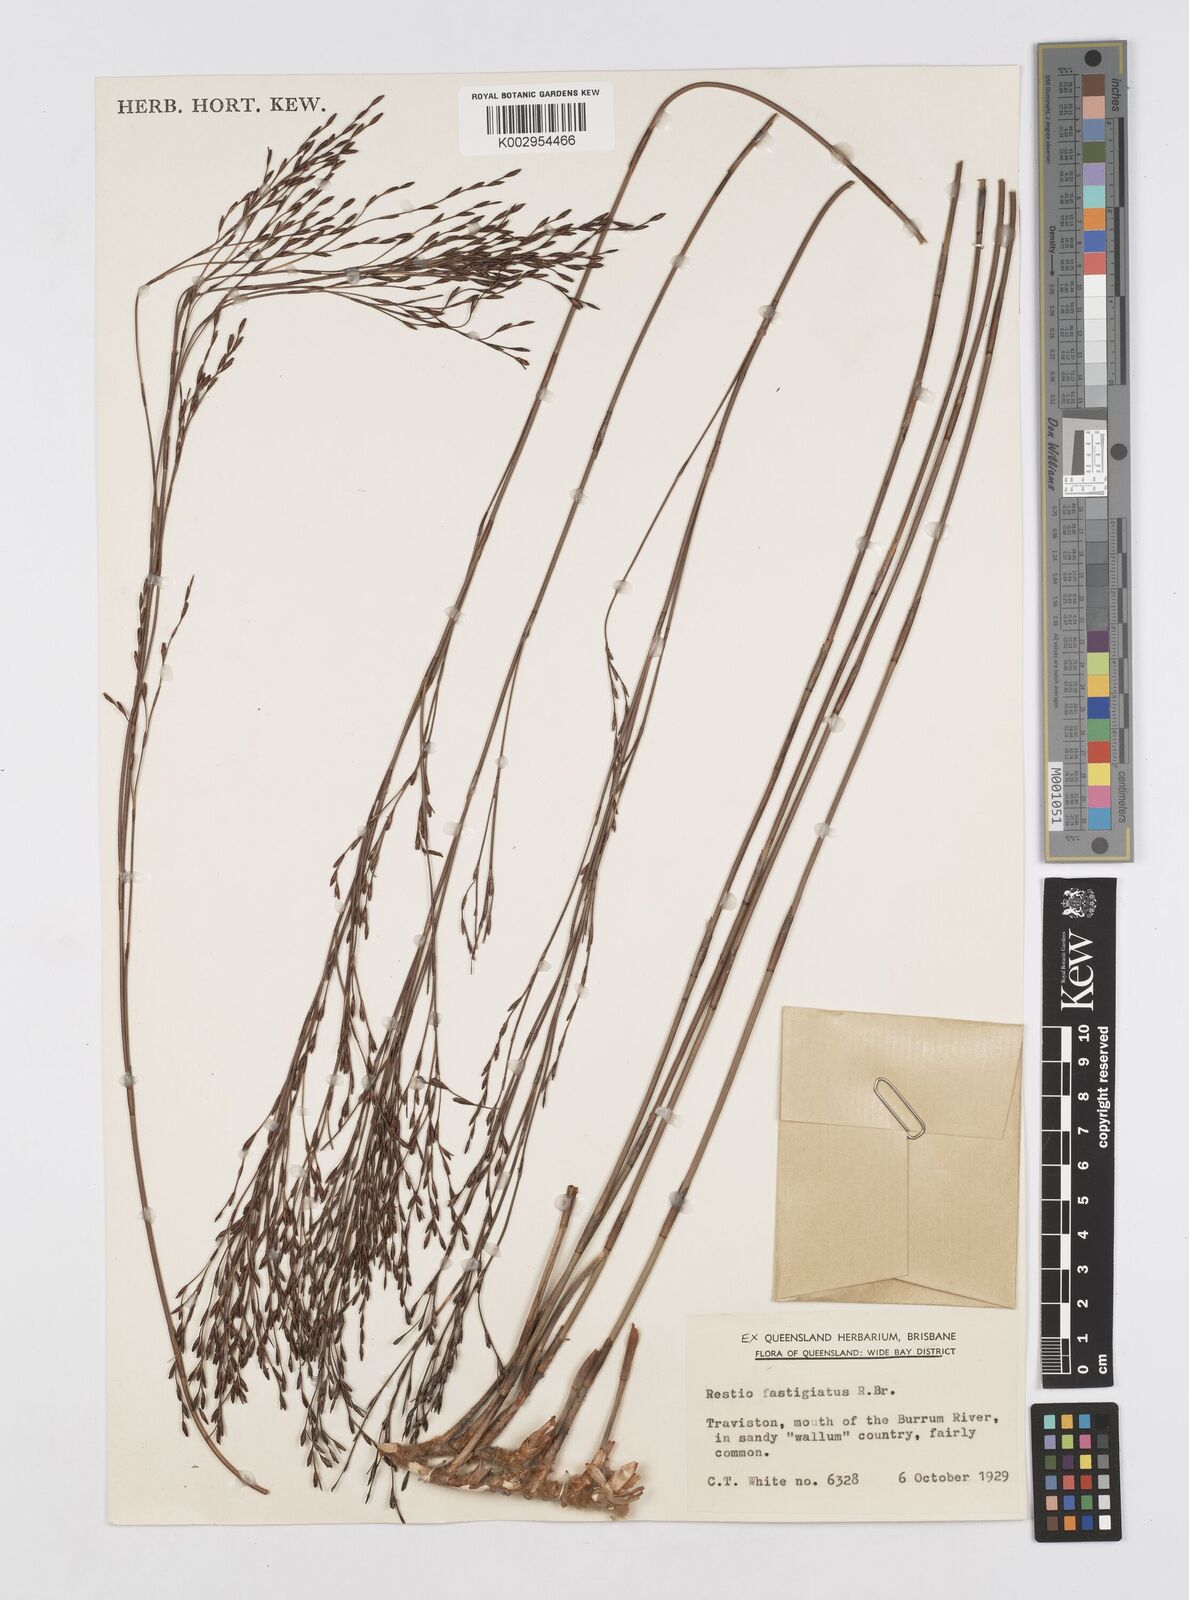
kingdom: Plantae
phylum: Tracheophyta
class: Liliopsida
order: Poales
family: Restionaceae
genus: Chordifex
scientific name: Chordifex fastigiatus
